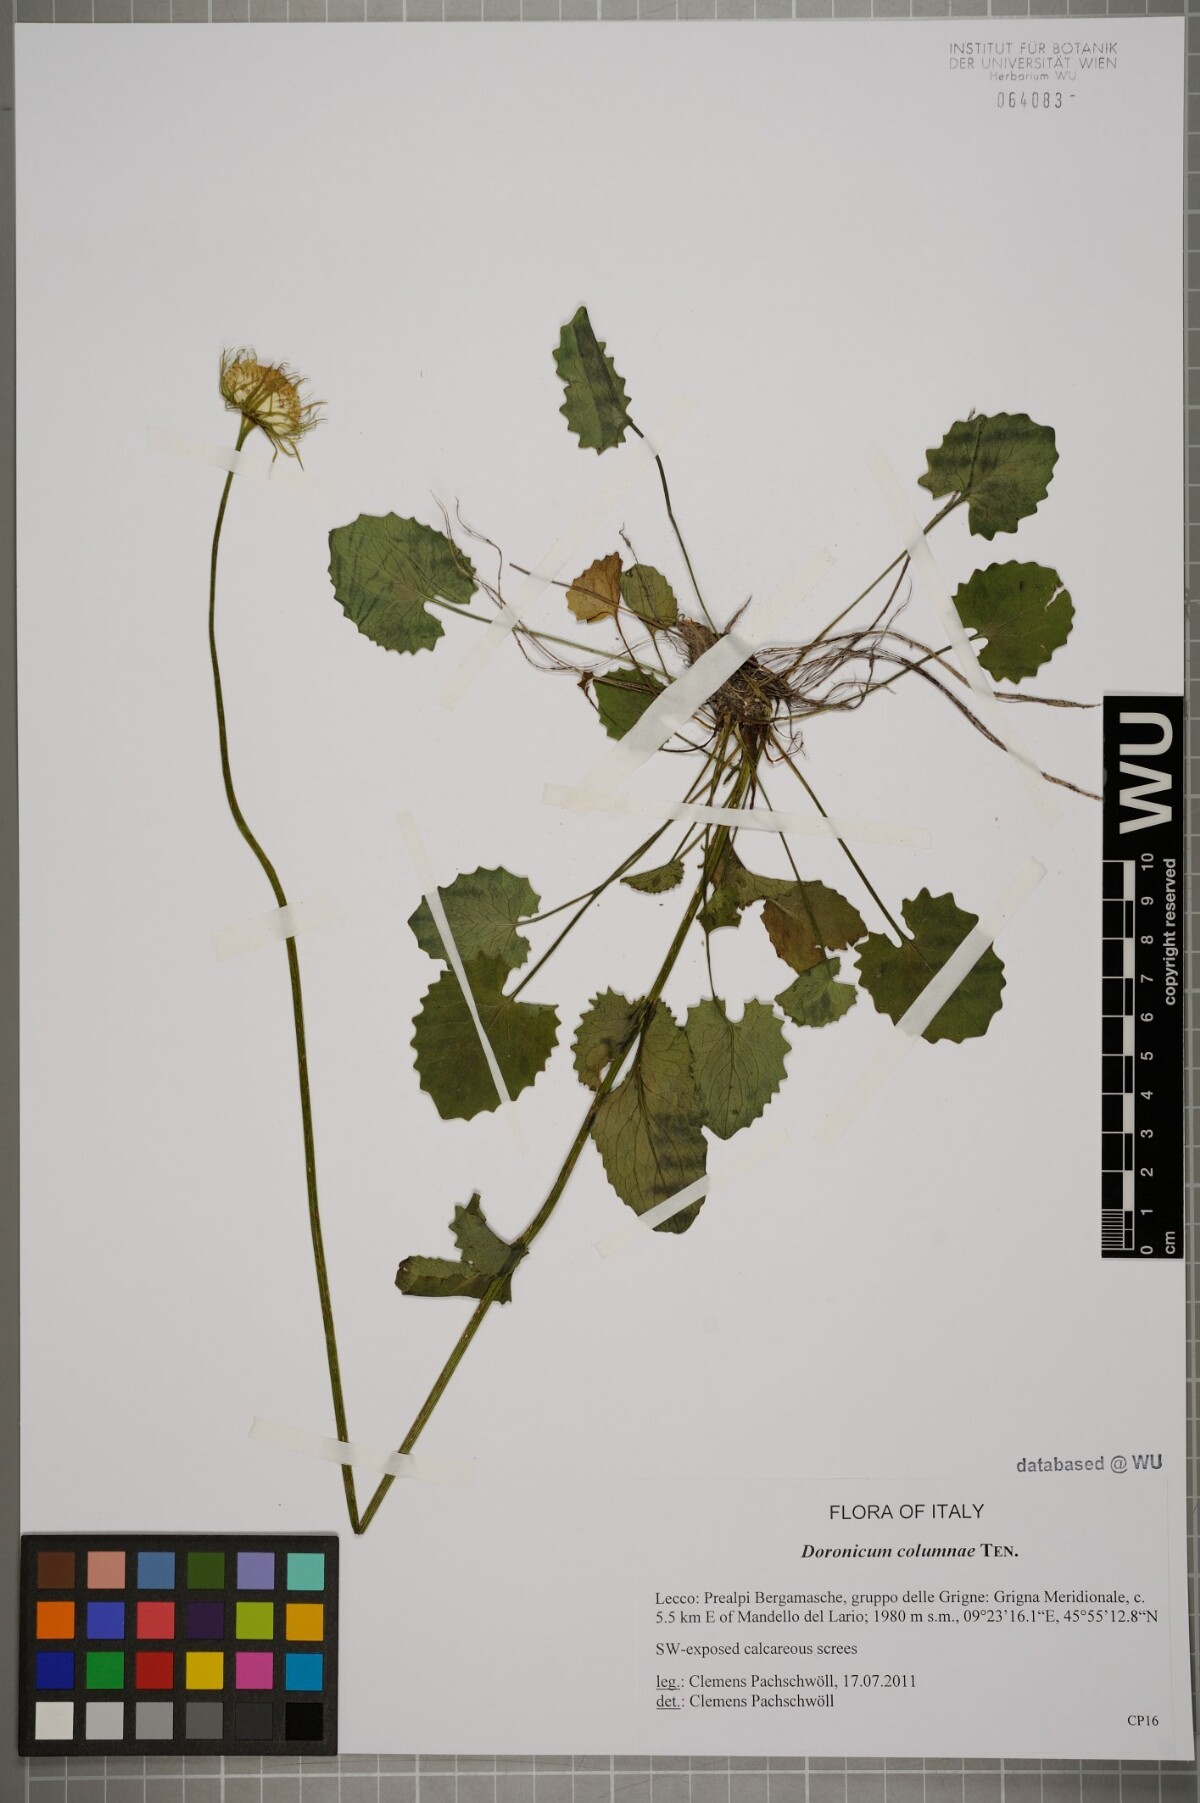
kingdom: Plantae
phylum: Tracheophyta
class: Magnoliopsida
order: Asterales
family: Asteraceae
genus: Doronicum
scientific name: Doronicum columnae
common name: Eastern leopard's-bane
